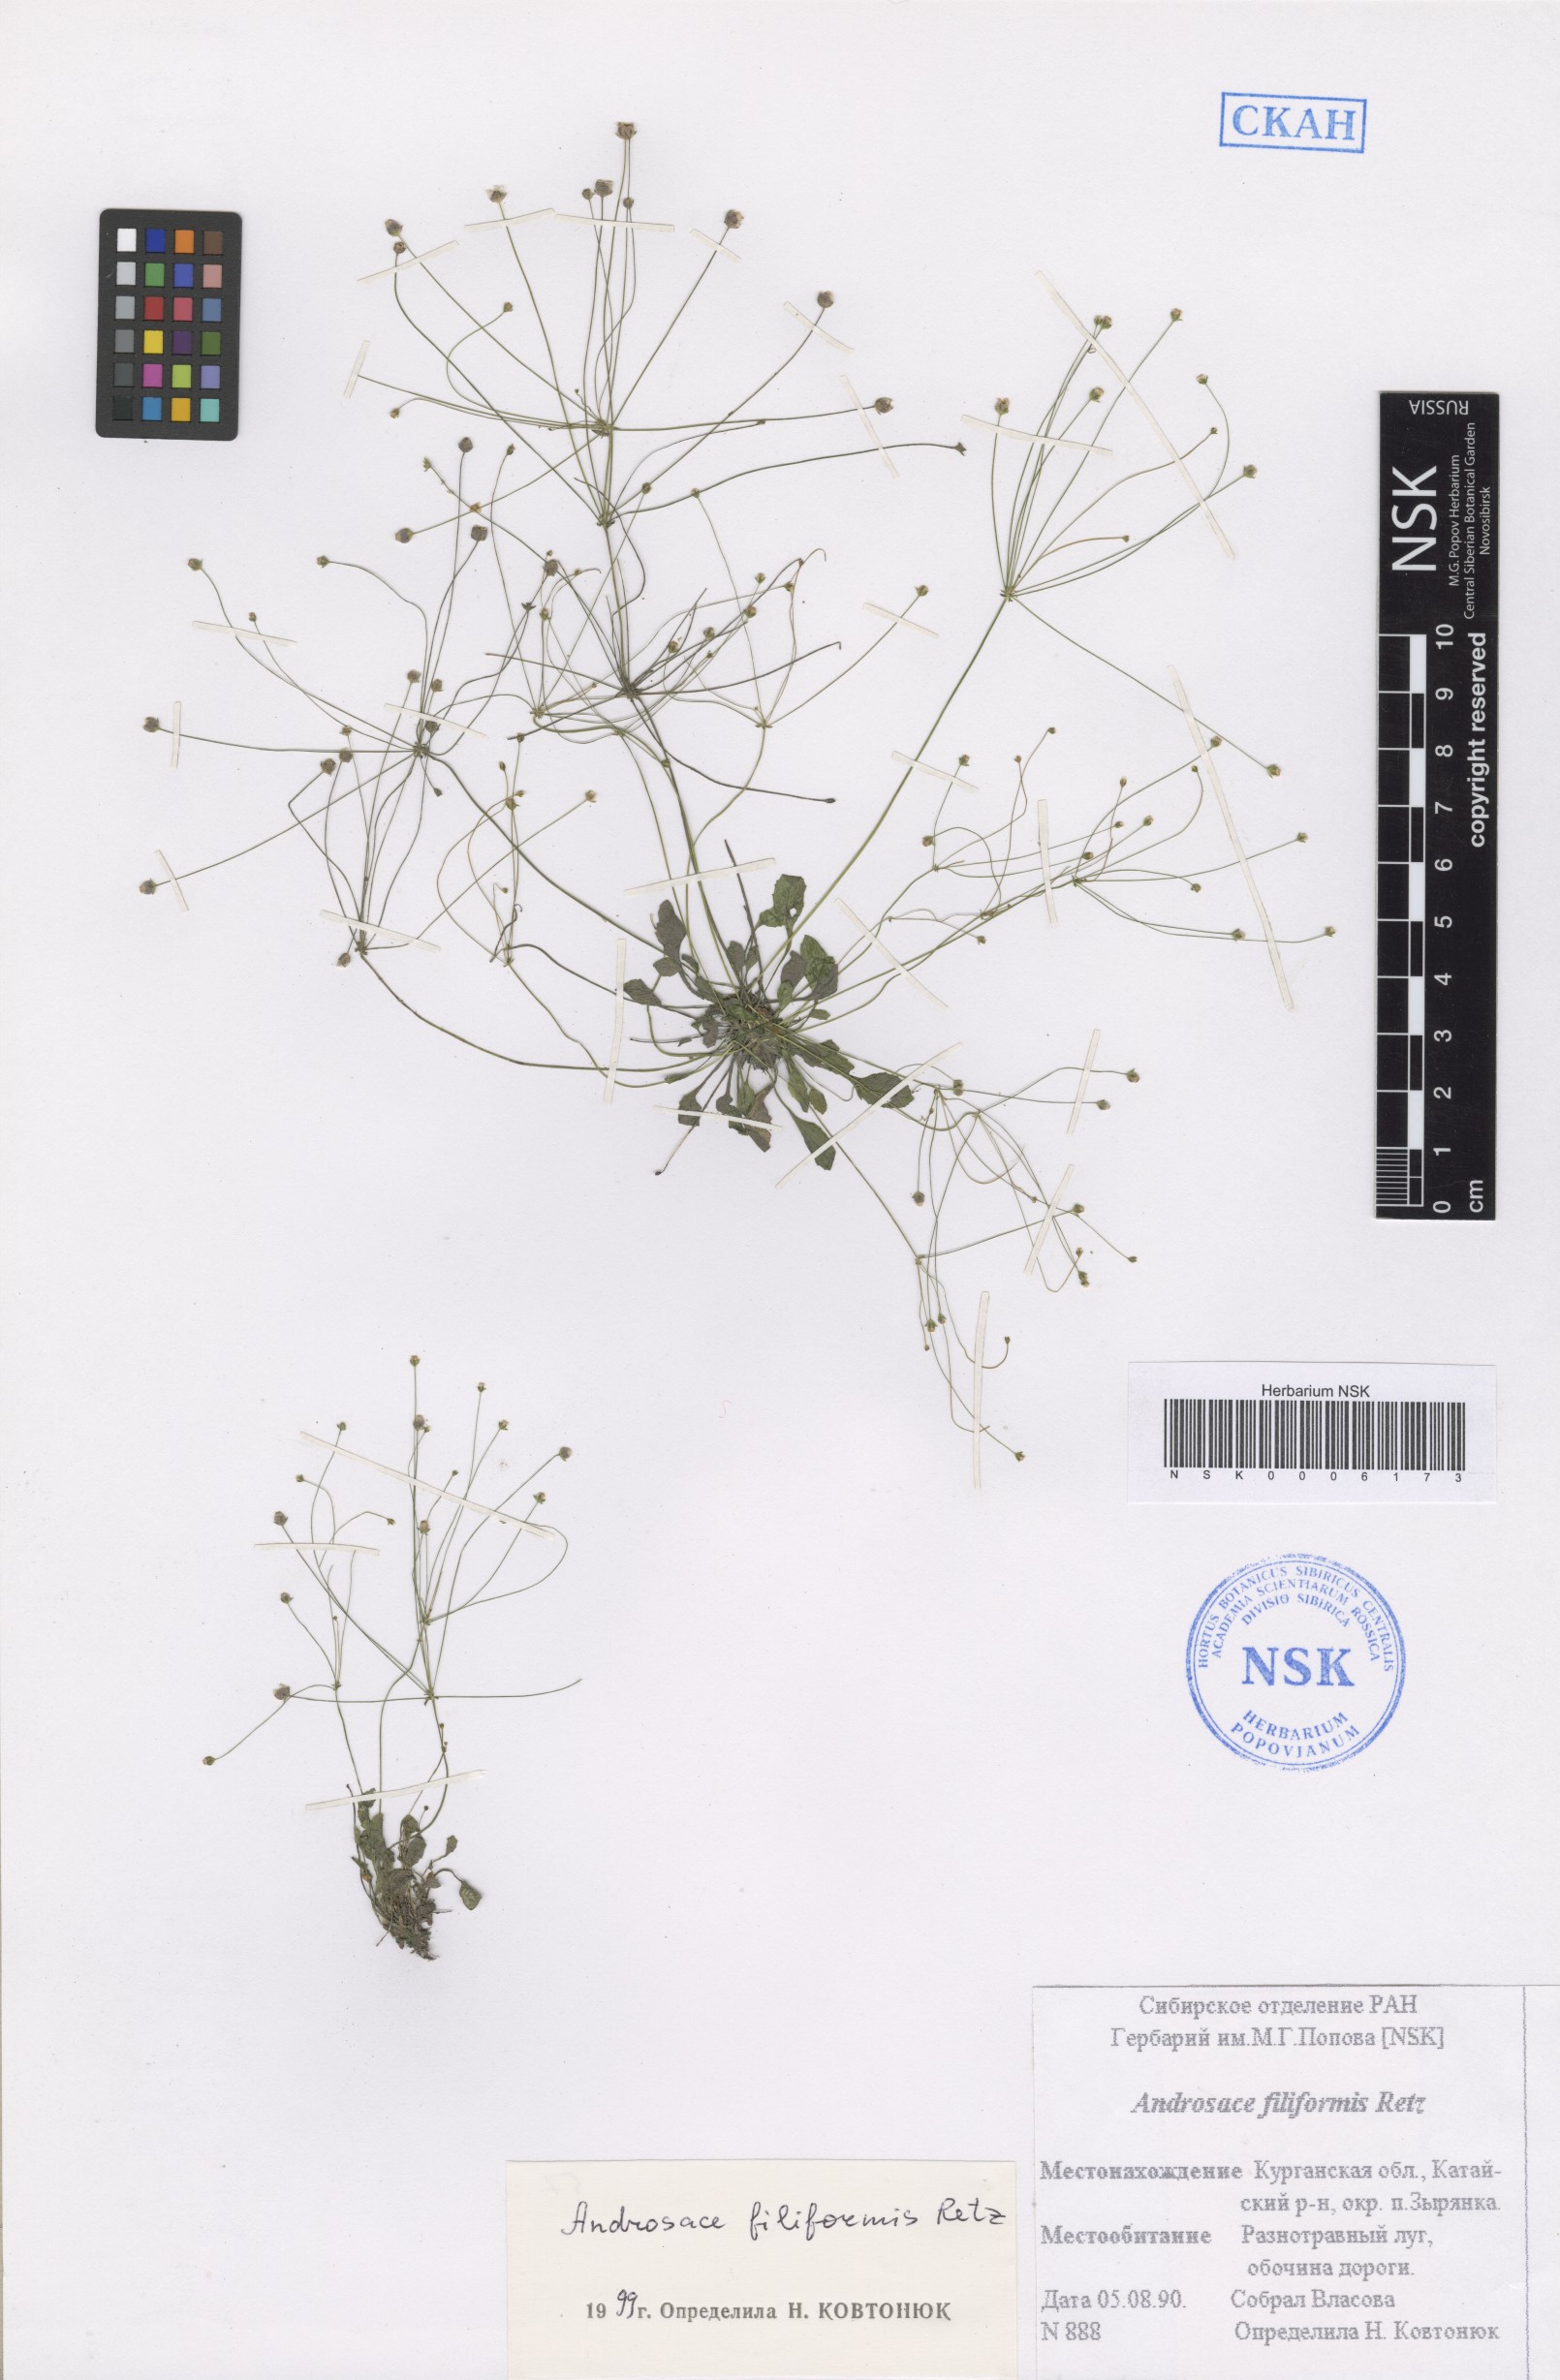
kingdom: Plantae
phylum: Tracheophyta
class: Magnoliopsida
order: Ericales
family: Primulaceae
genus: Androsace
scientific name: Androsace filiformis
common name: Filiform rock jasmine
